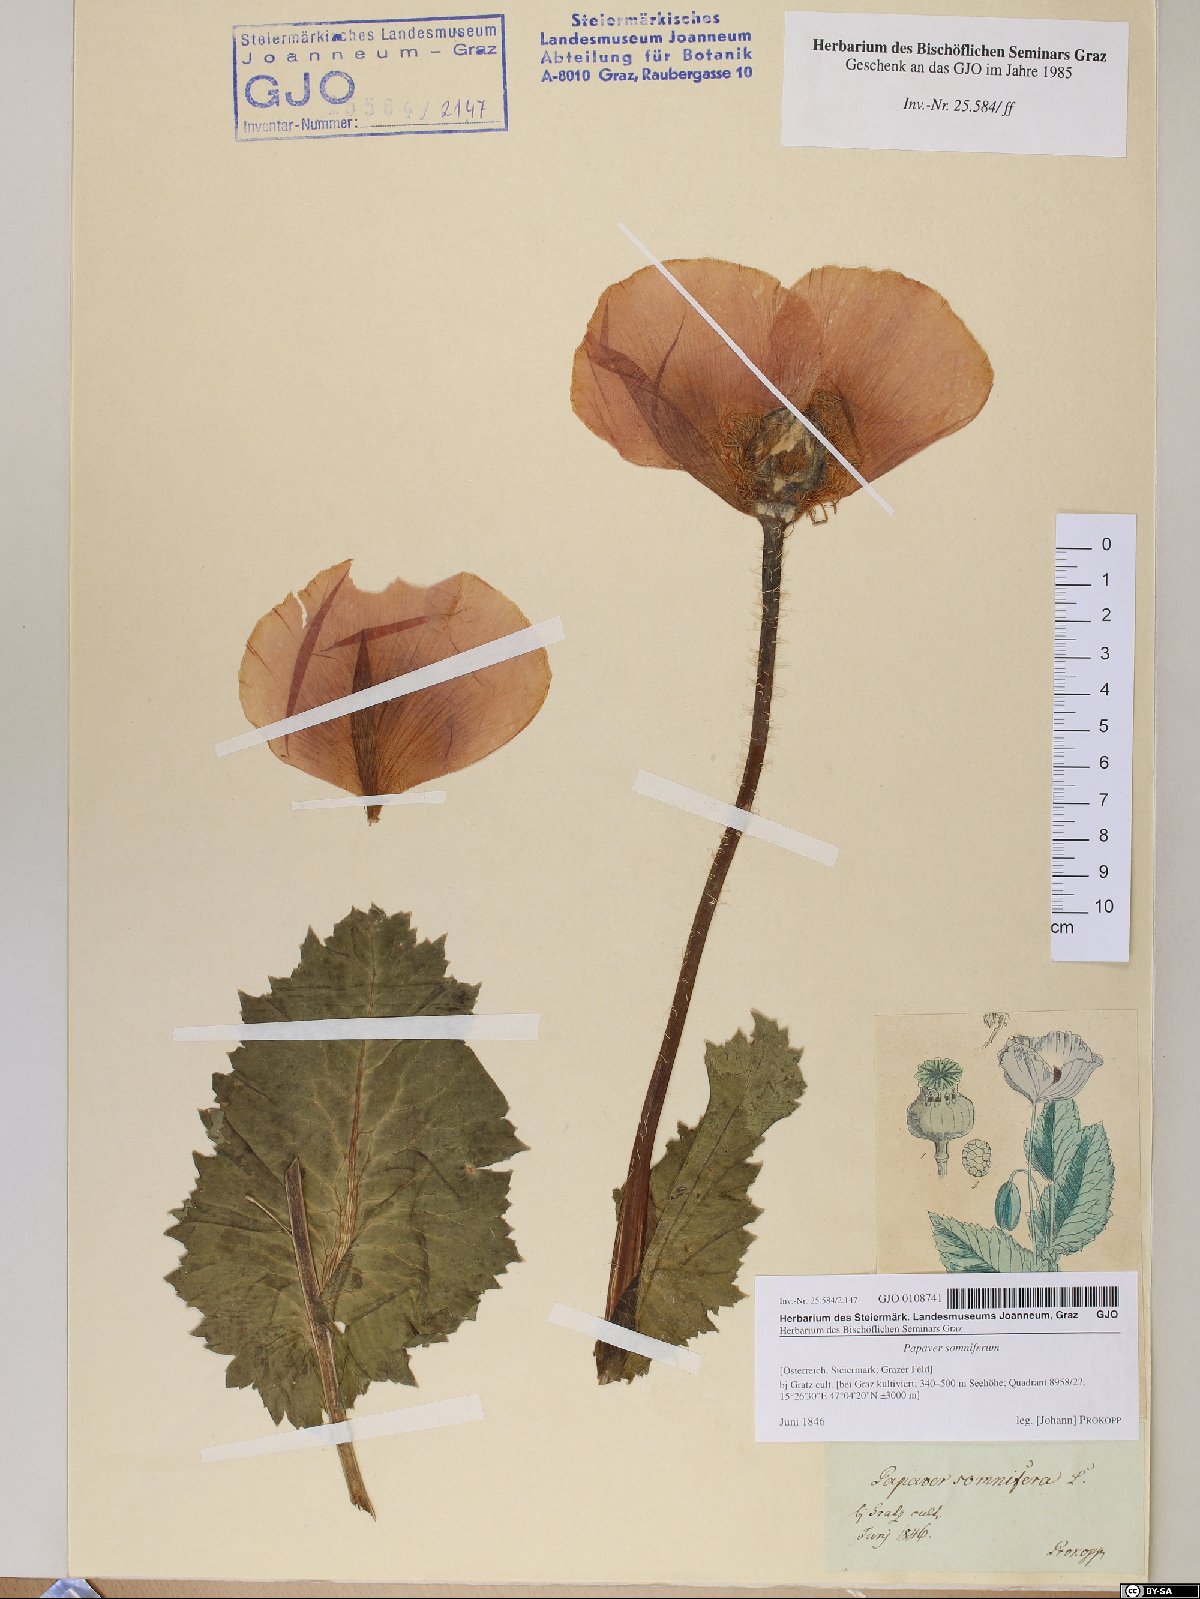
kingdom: Plantae
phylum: Tracheophyta
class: Magnoliopsida
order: Ranunculales
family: Papaveraceae
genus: Papaver
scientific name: Papaver somniferum
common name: Opium poppy
